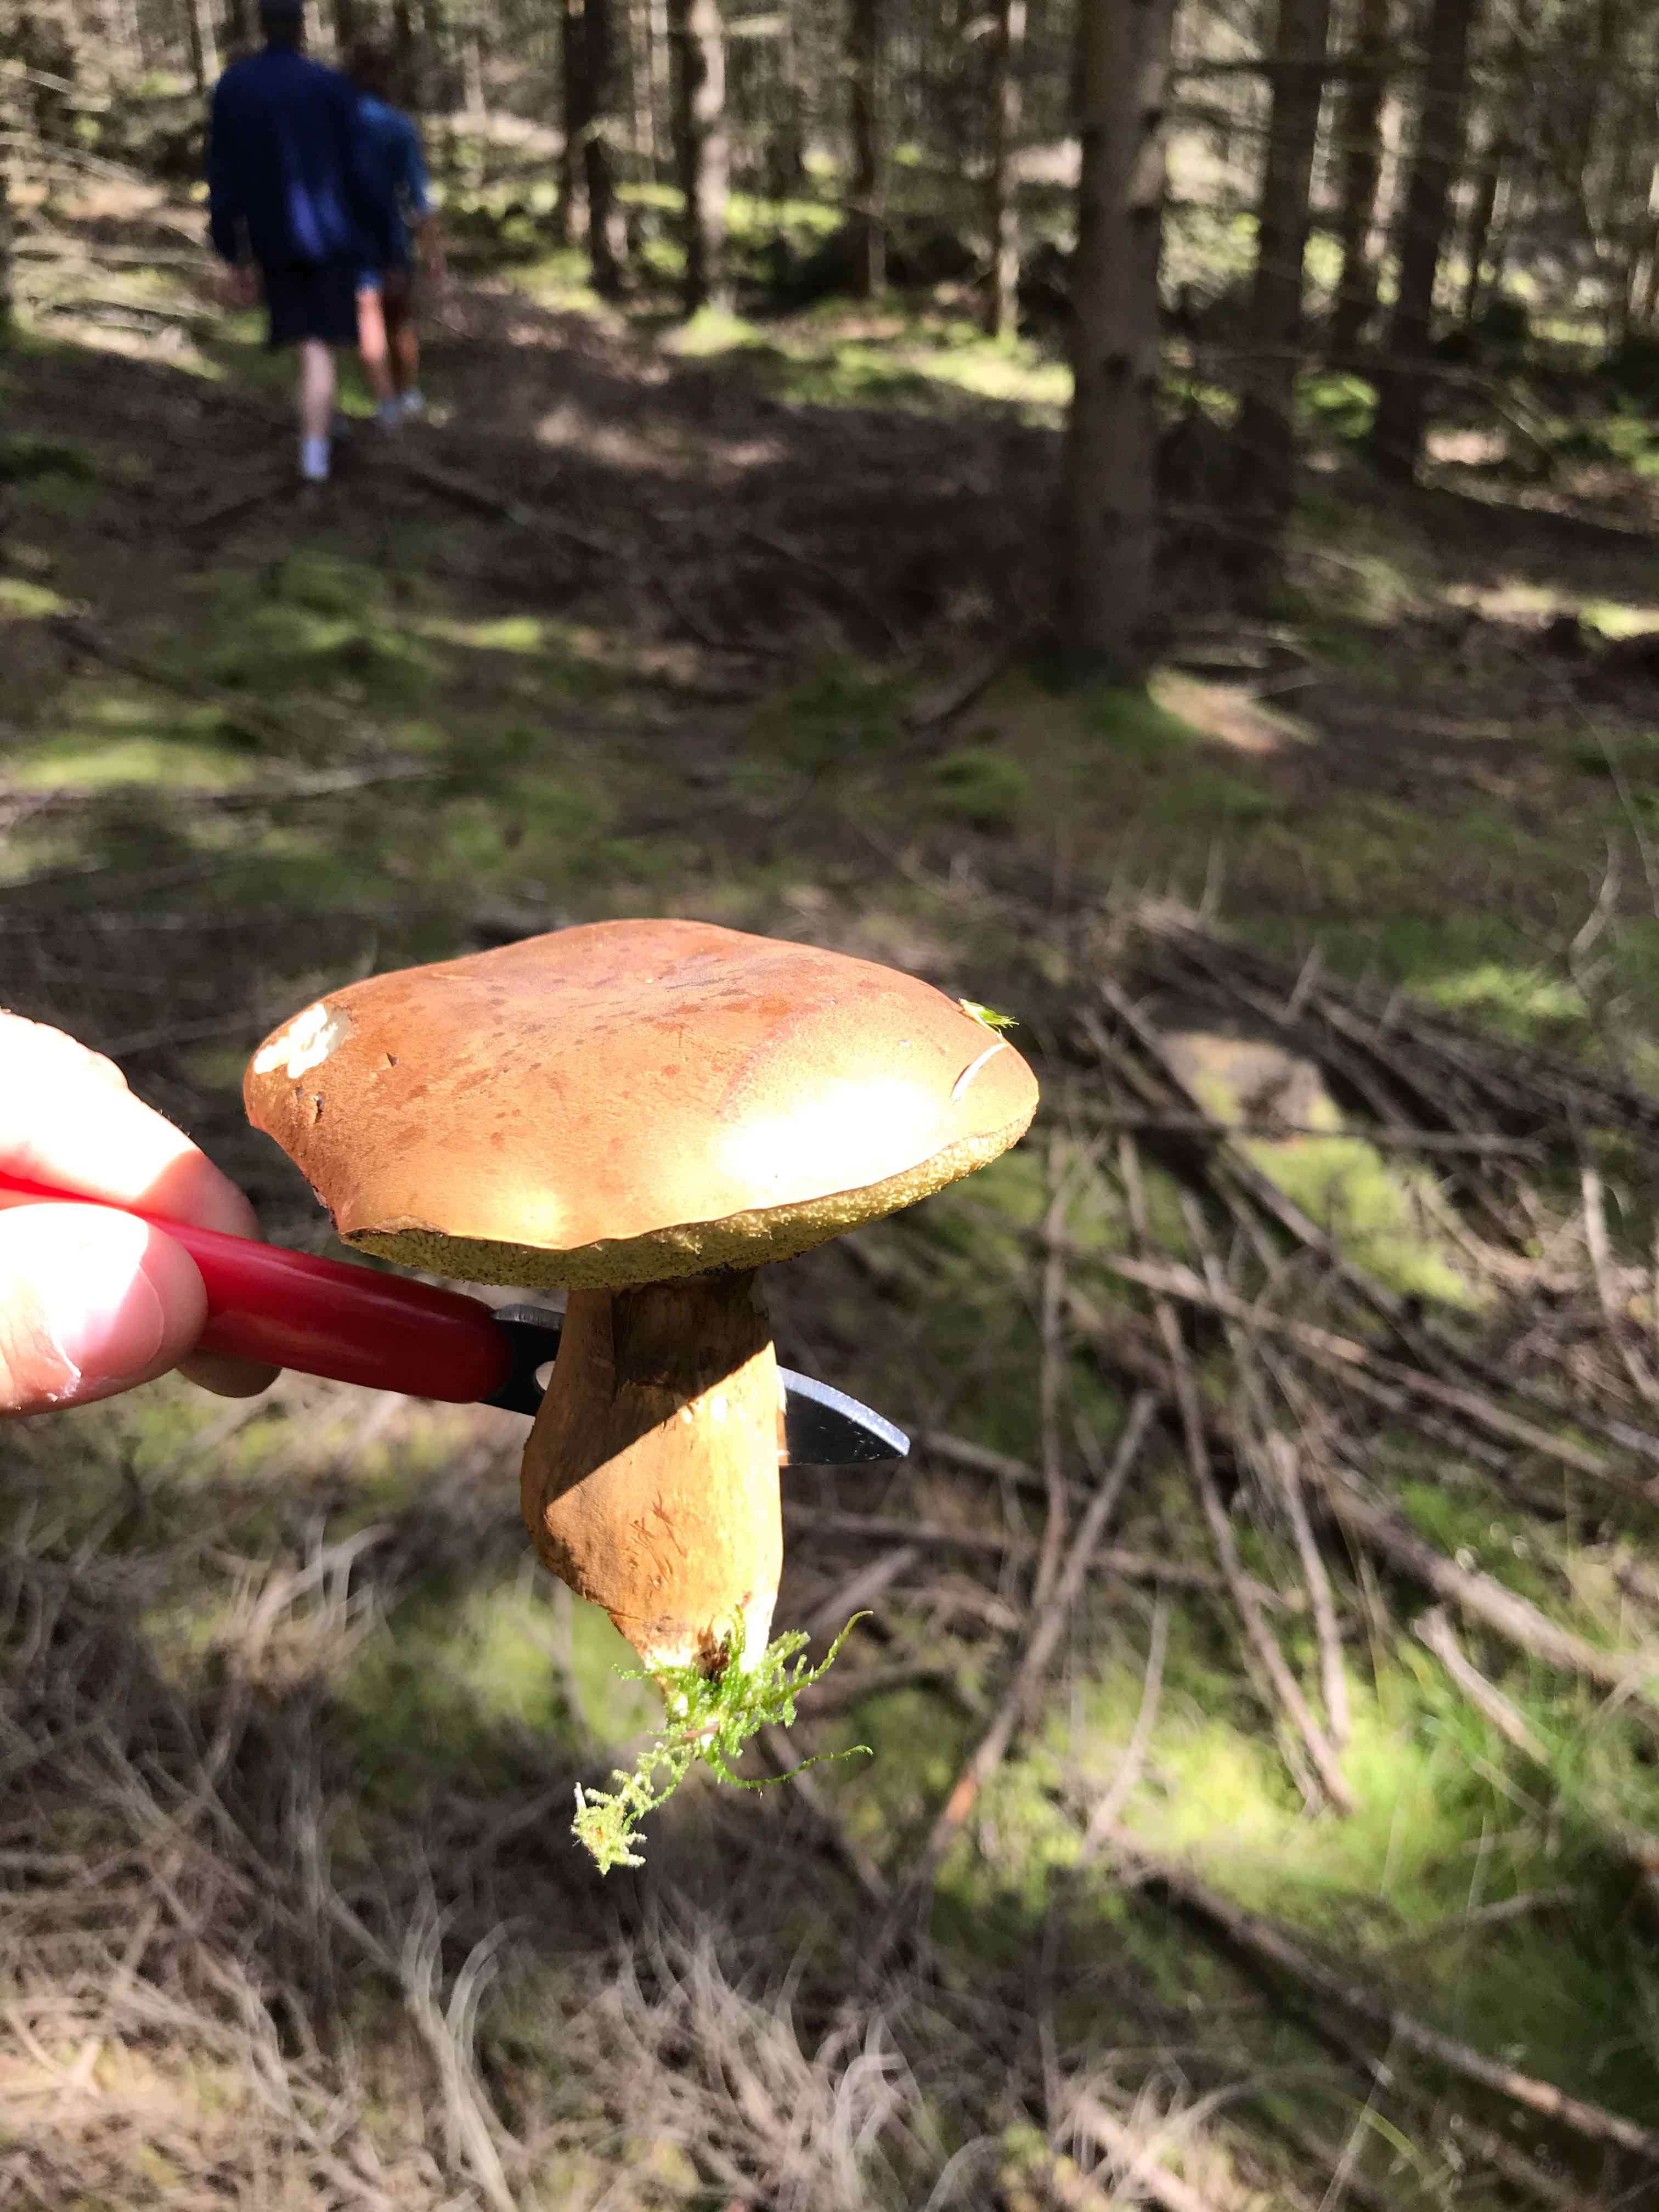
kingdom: Fungi
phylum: Basidiomycota
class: Agaricomycetes
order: Boletales
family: Boletaceae
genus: Imleria
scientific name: Imleria badia
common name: brunstokket rørhat
